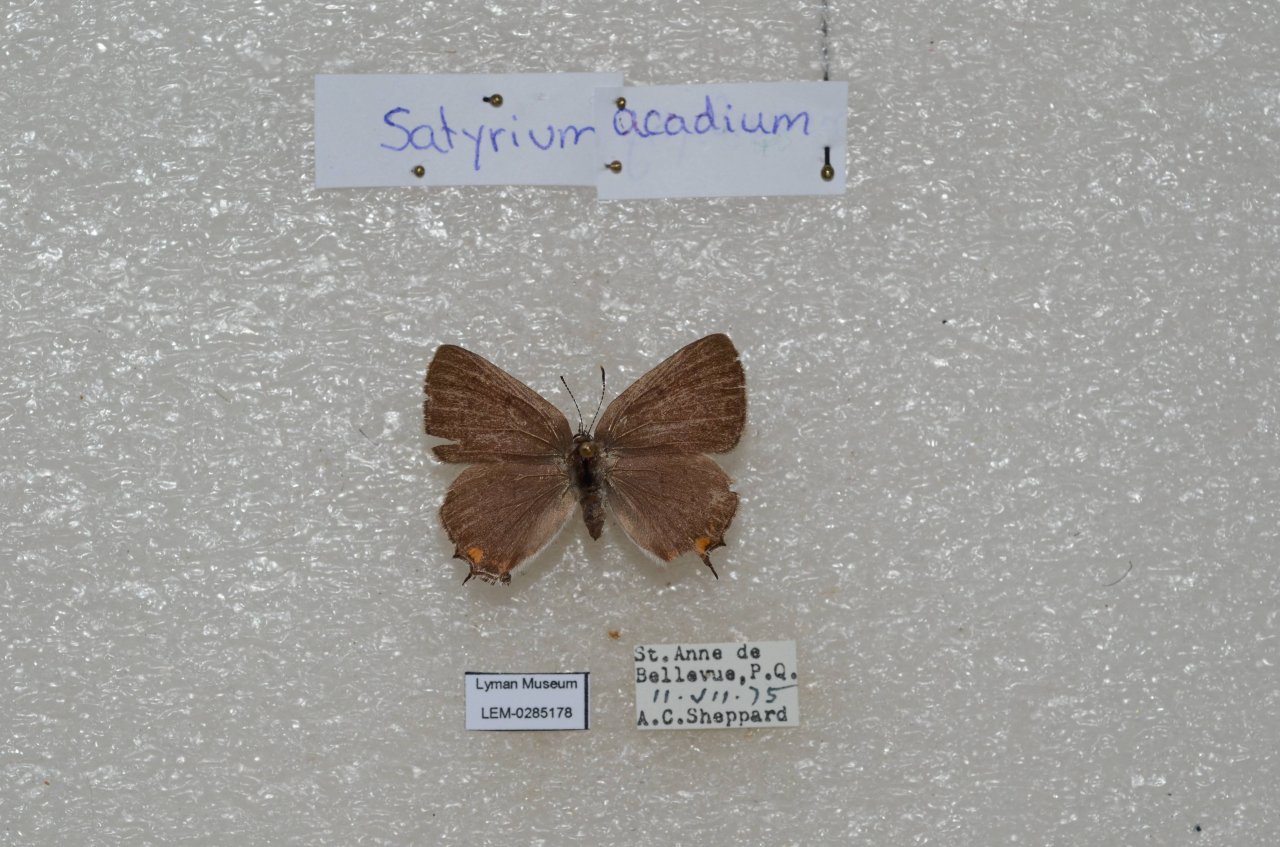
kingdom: Animalia
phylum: Arthropoda
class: Insecta
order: Lepidoptera
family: Lycaenidae
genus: Strymon
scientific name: Strymon acadica
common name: Acadian Hairstreak
